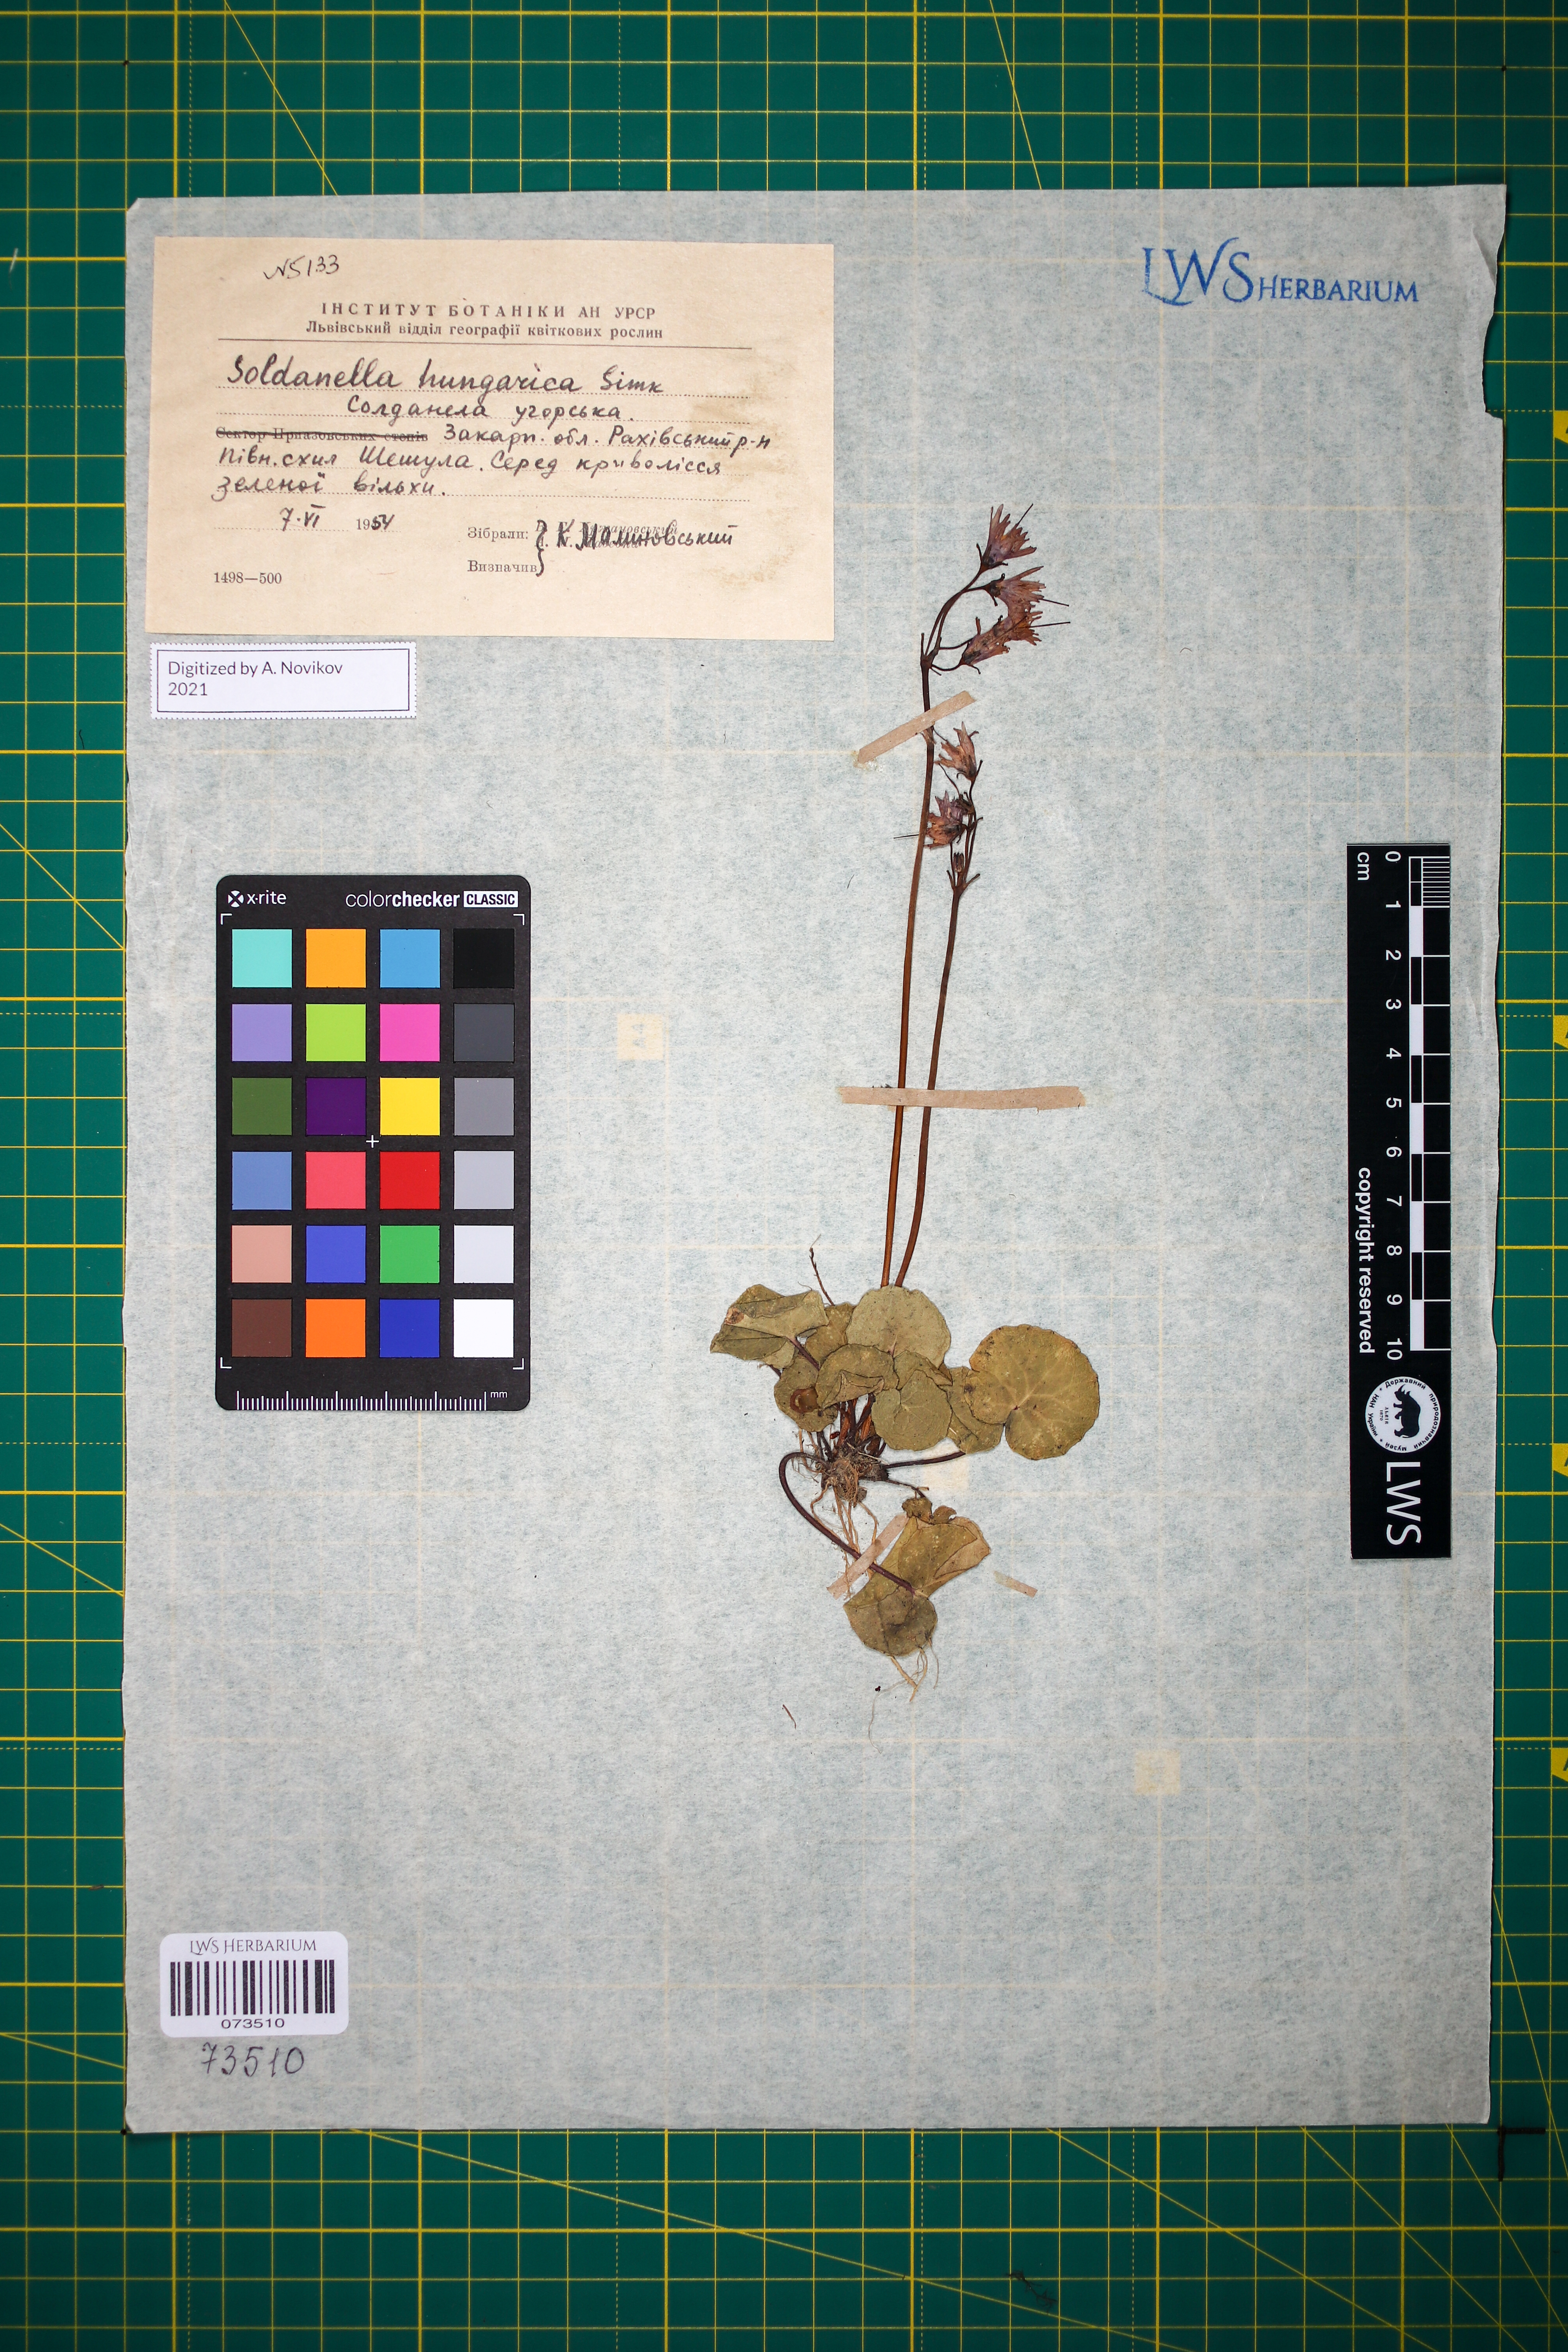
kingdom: Plantae
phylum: Tracheophyta
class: Magnoliopsida
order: Ericales
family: Primulaceae
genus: Soldanella
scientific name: Soldanella hungarica
